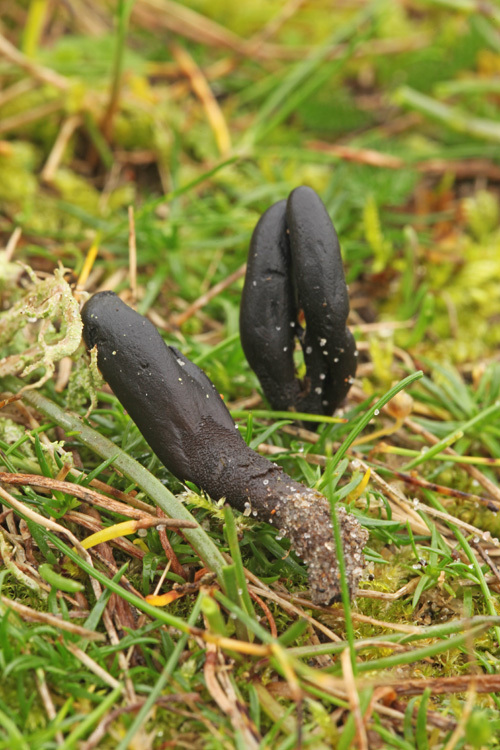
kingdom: Fungi
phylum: Ascomycota
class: Geoglossomycetes
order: Geoglossales
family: Geoglossaceae
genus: Hemileucoglossum
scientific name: Hemileucoglossum elongatum
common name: småsporet jordtunge
